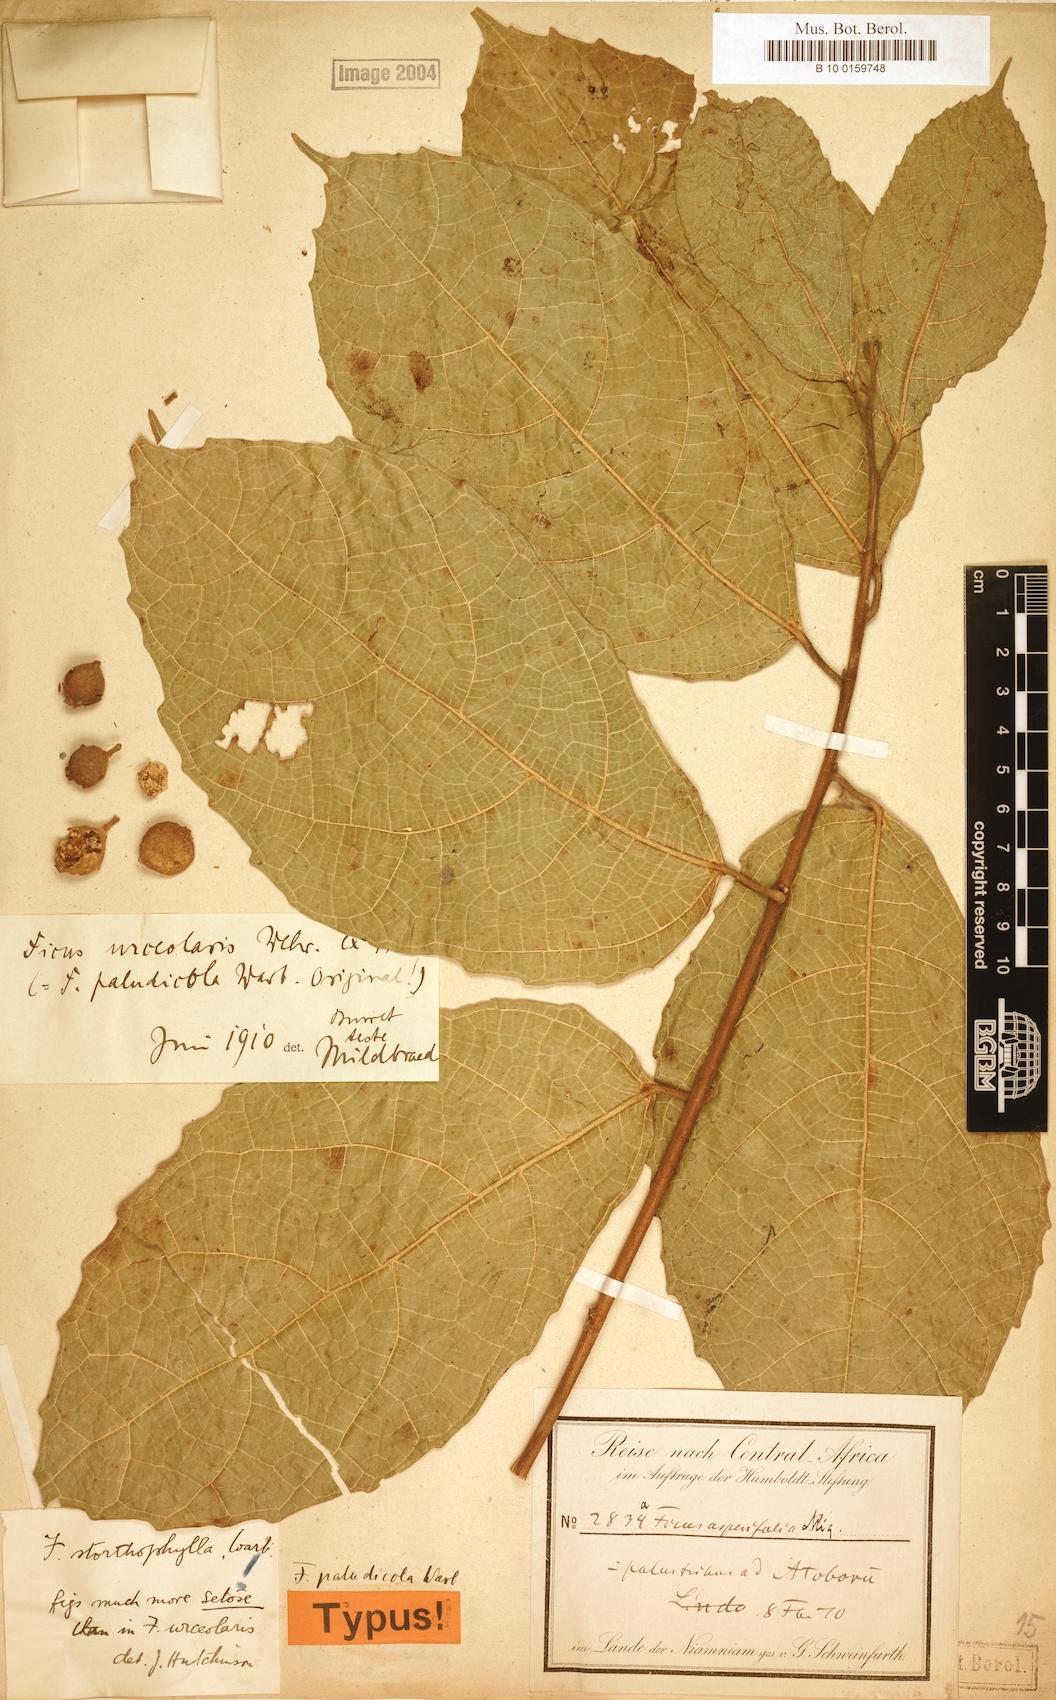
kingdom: Plantae
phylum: Tracheophyta
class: Magnoliopsida
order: Rosales
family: Moraceae
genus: Ficus
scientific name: Ficus asperifolia
